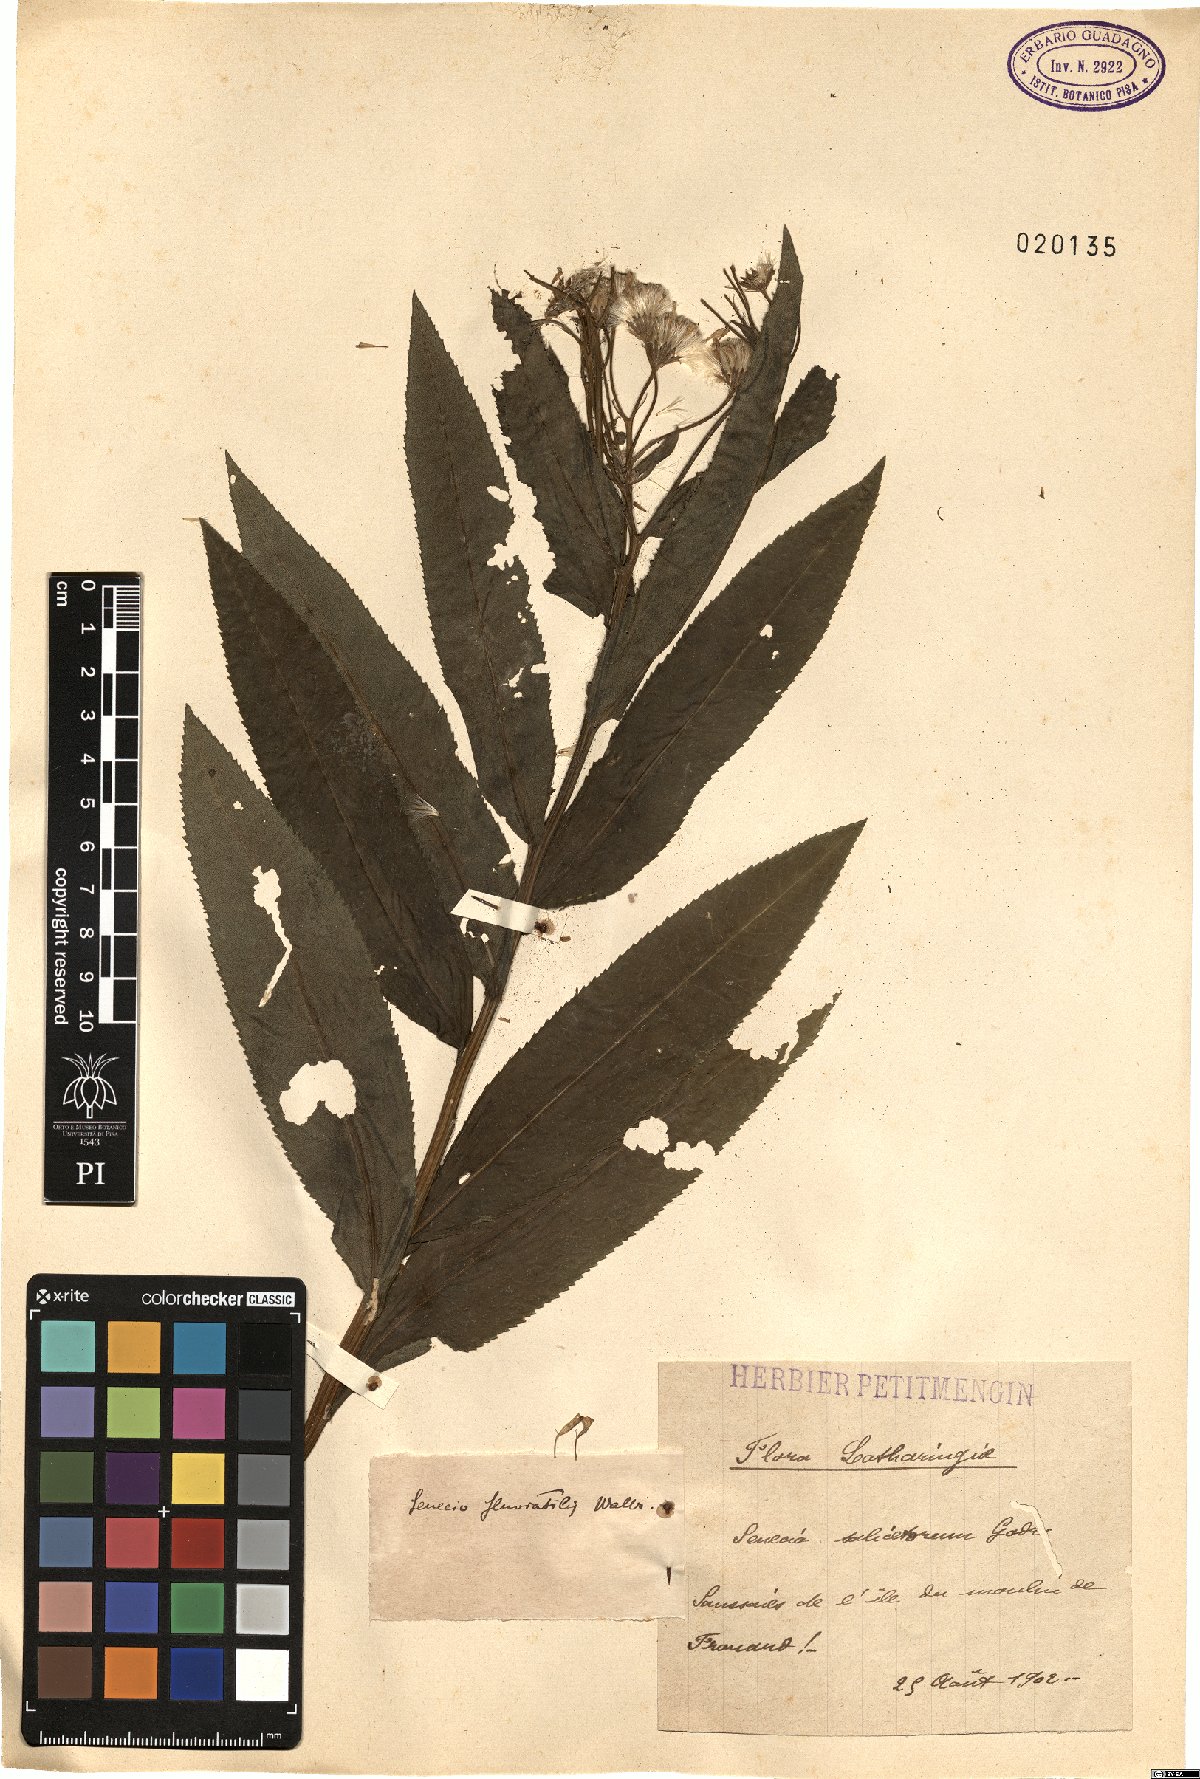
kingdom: Plantae
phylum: Tracheophyta
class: Magnoliopsida
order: Asterales
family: Asteraceae
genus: Senecio
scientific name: Senecio sarracenicus
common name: Broad-leaved ragwort
